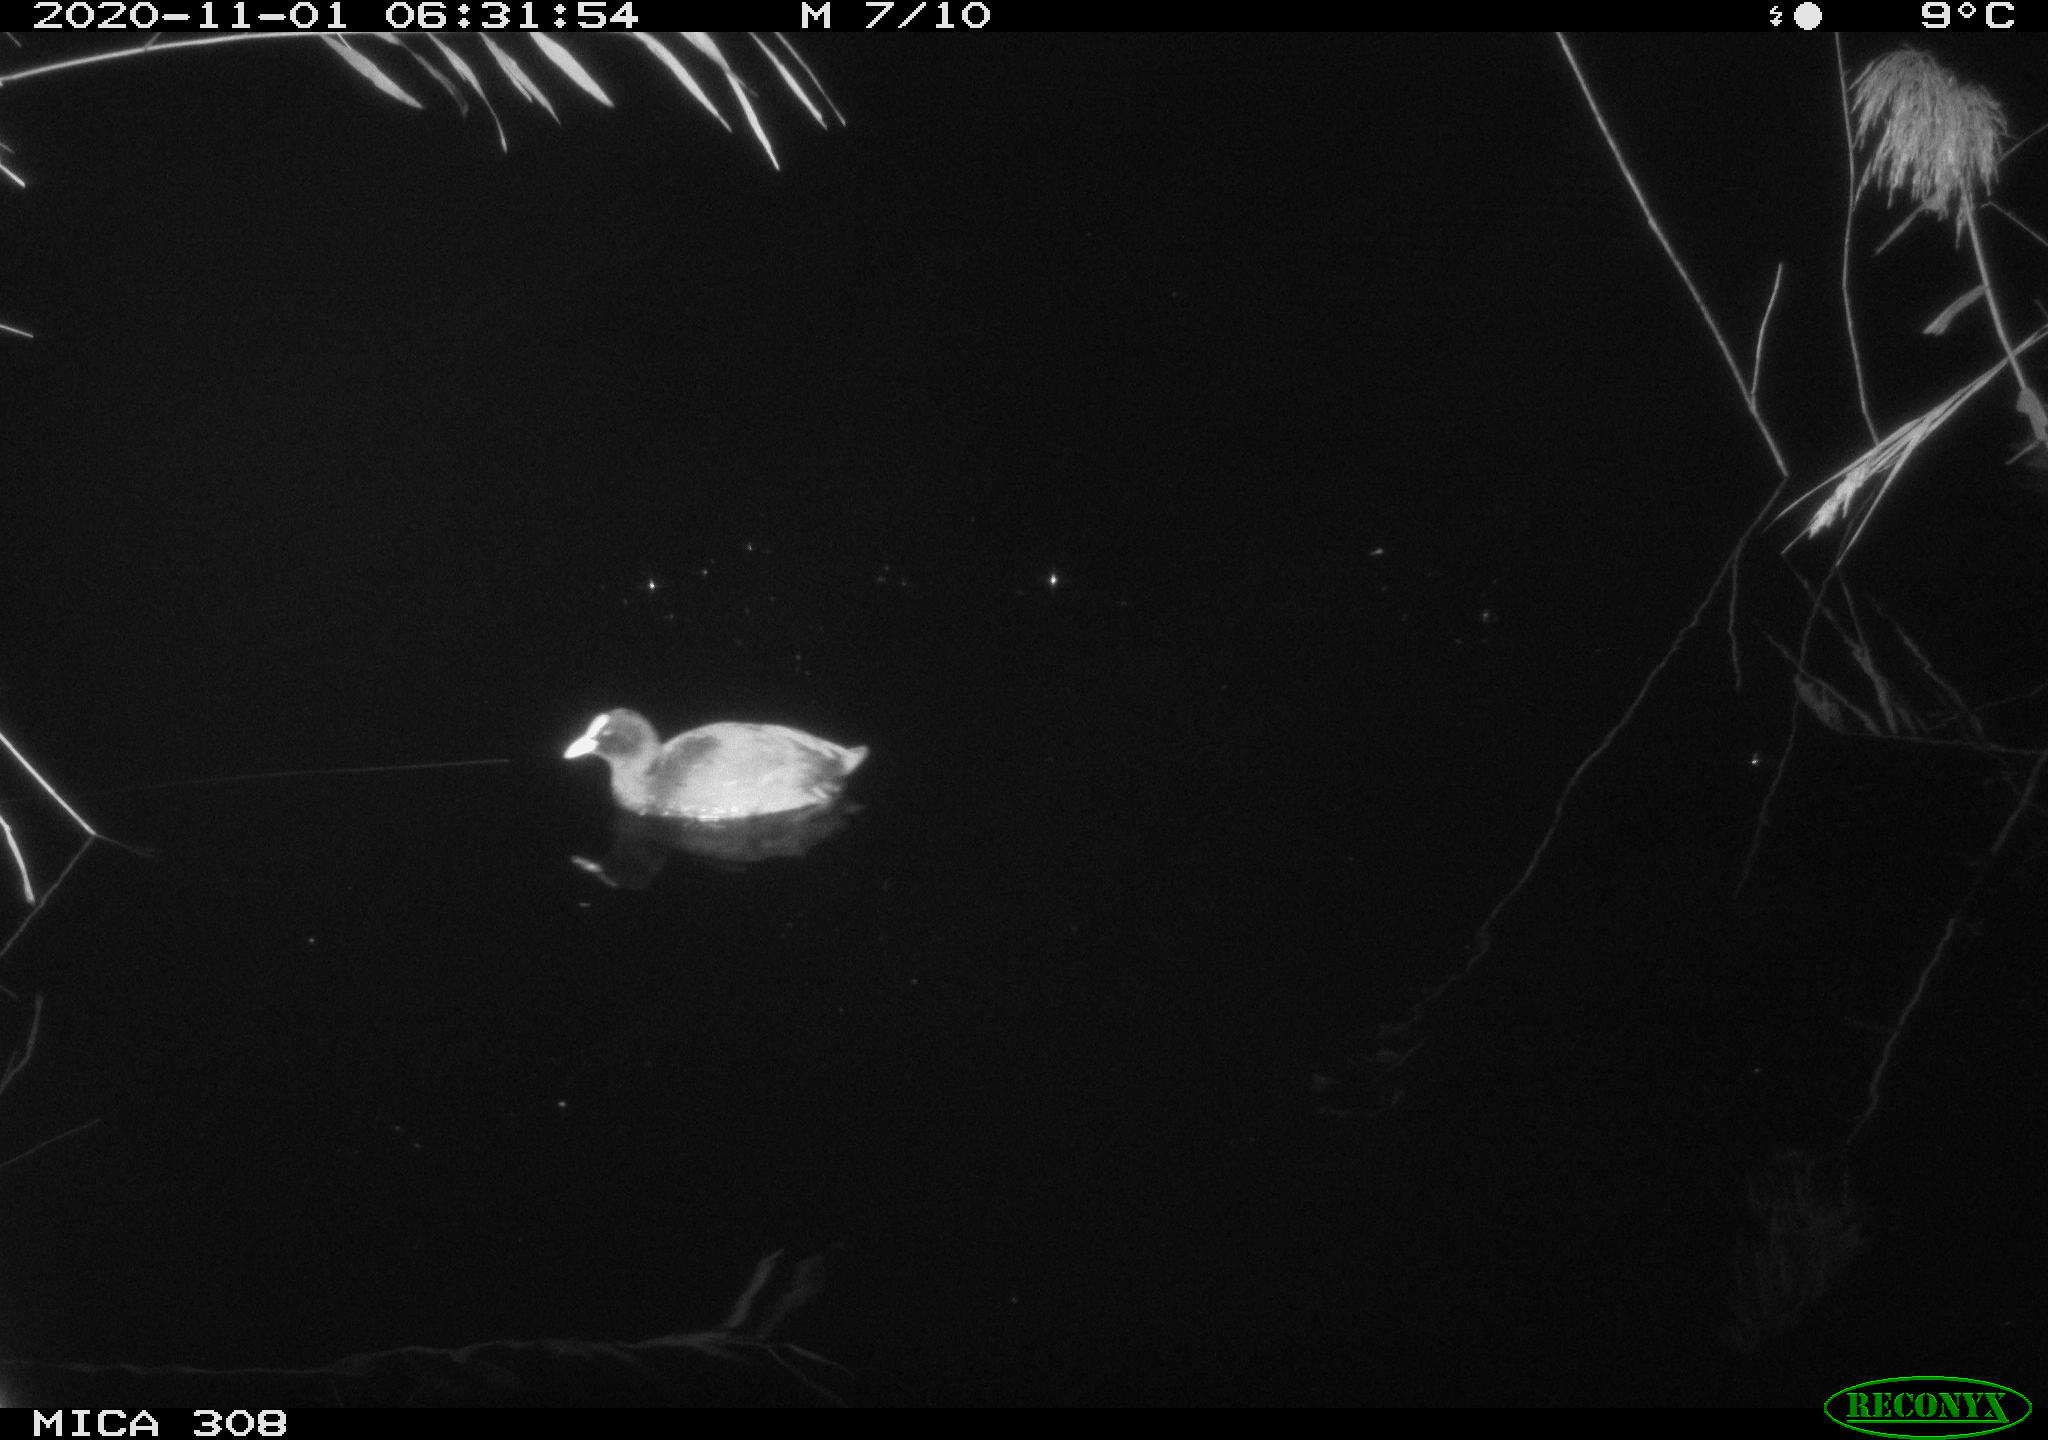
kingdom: Animalia
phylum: Chordata
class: Aves
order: Gruiformes
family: Rallidae
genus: Fulica
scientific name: Fulica atra
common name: Eurasian coot
